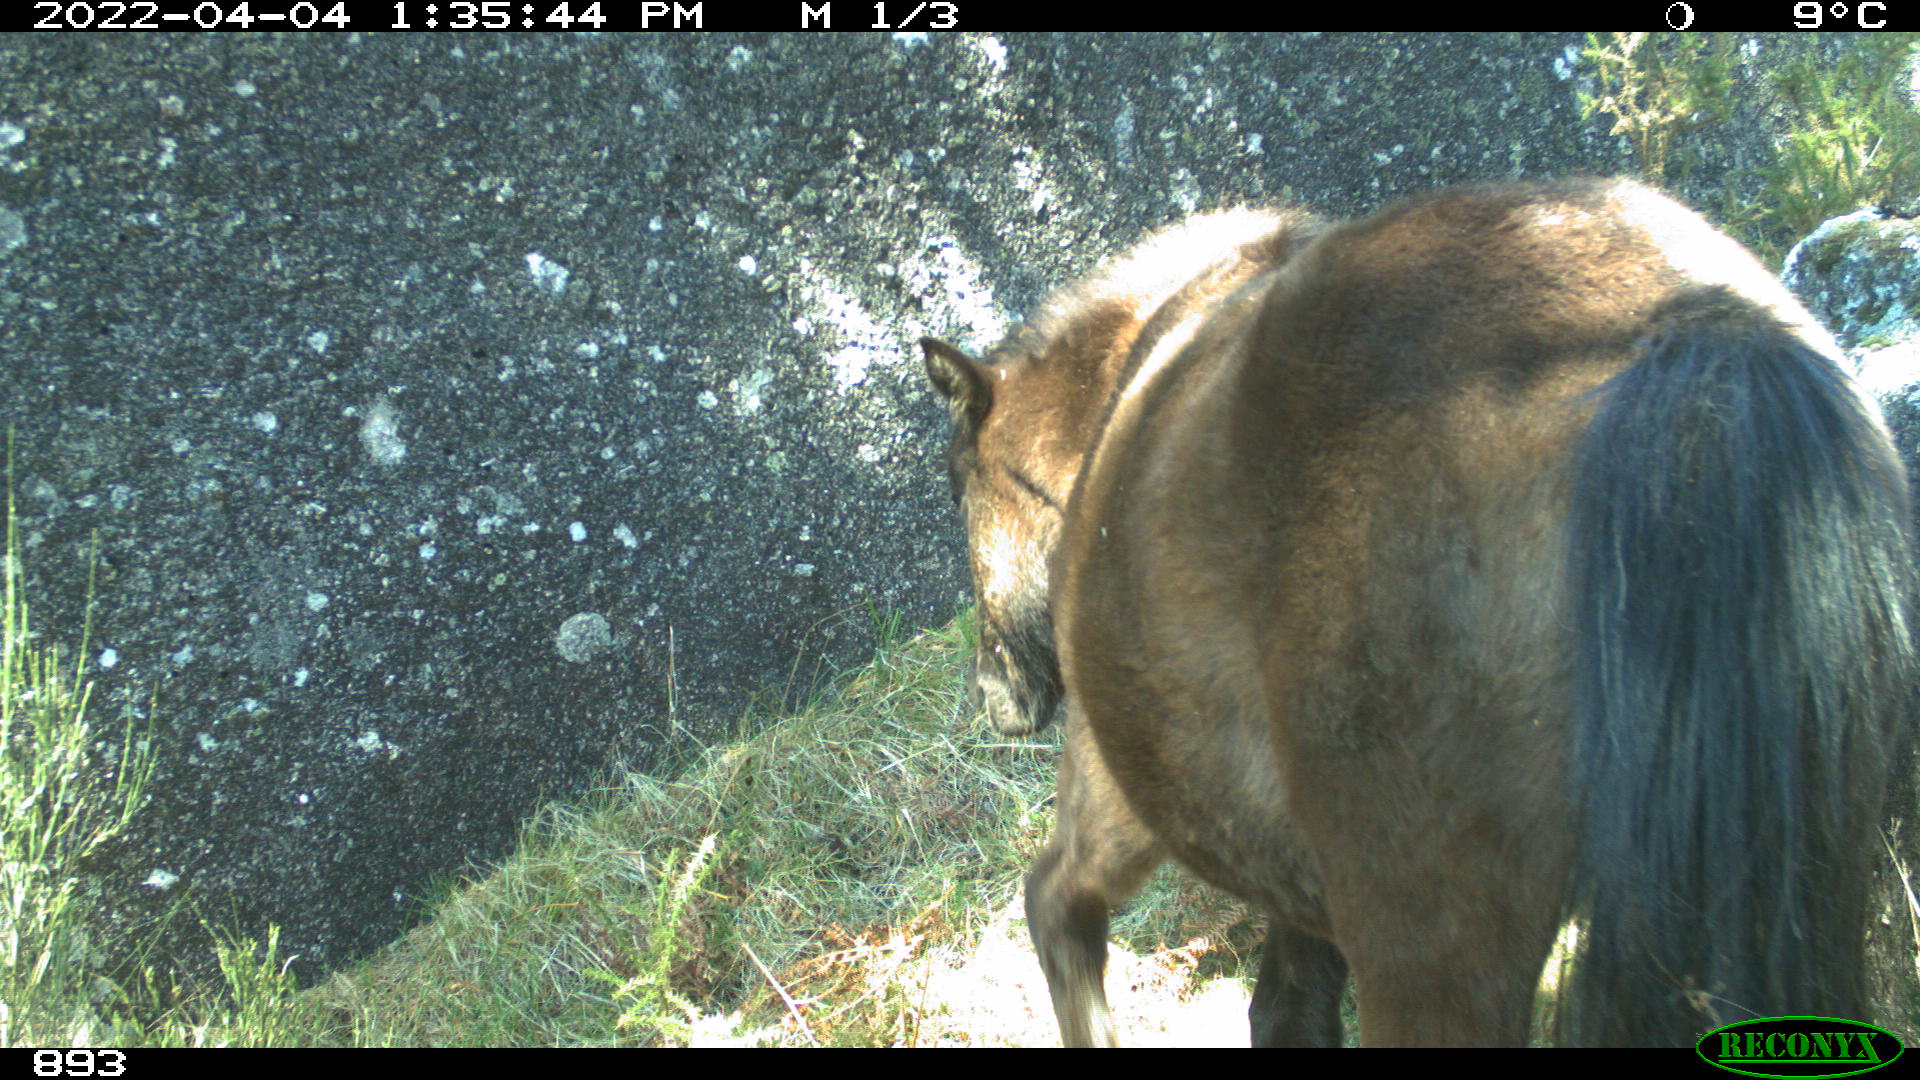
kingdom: Animalia
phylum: Chordata
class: Mammalia
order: Perissodactyla
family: Equidae
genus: Equus
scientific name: Equus caballus
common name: Horse
